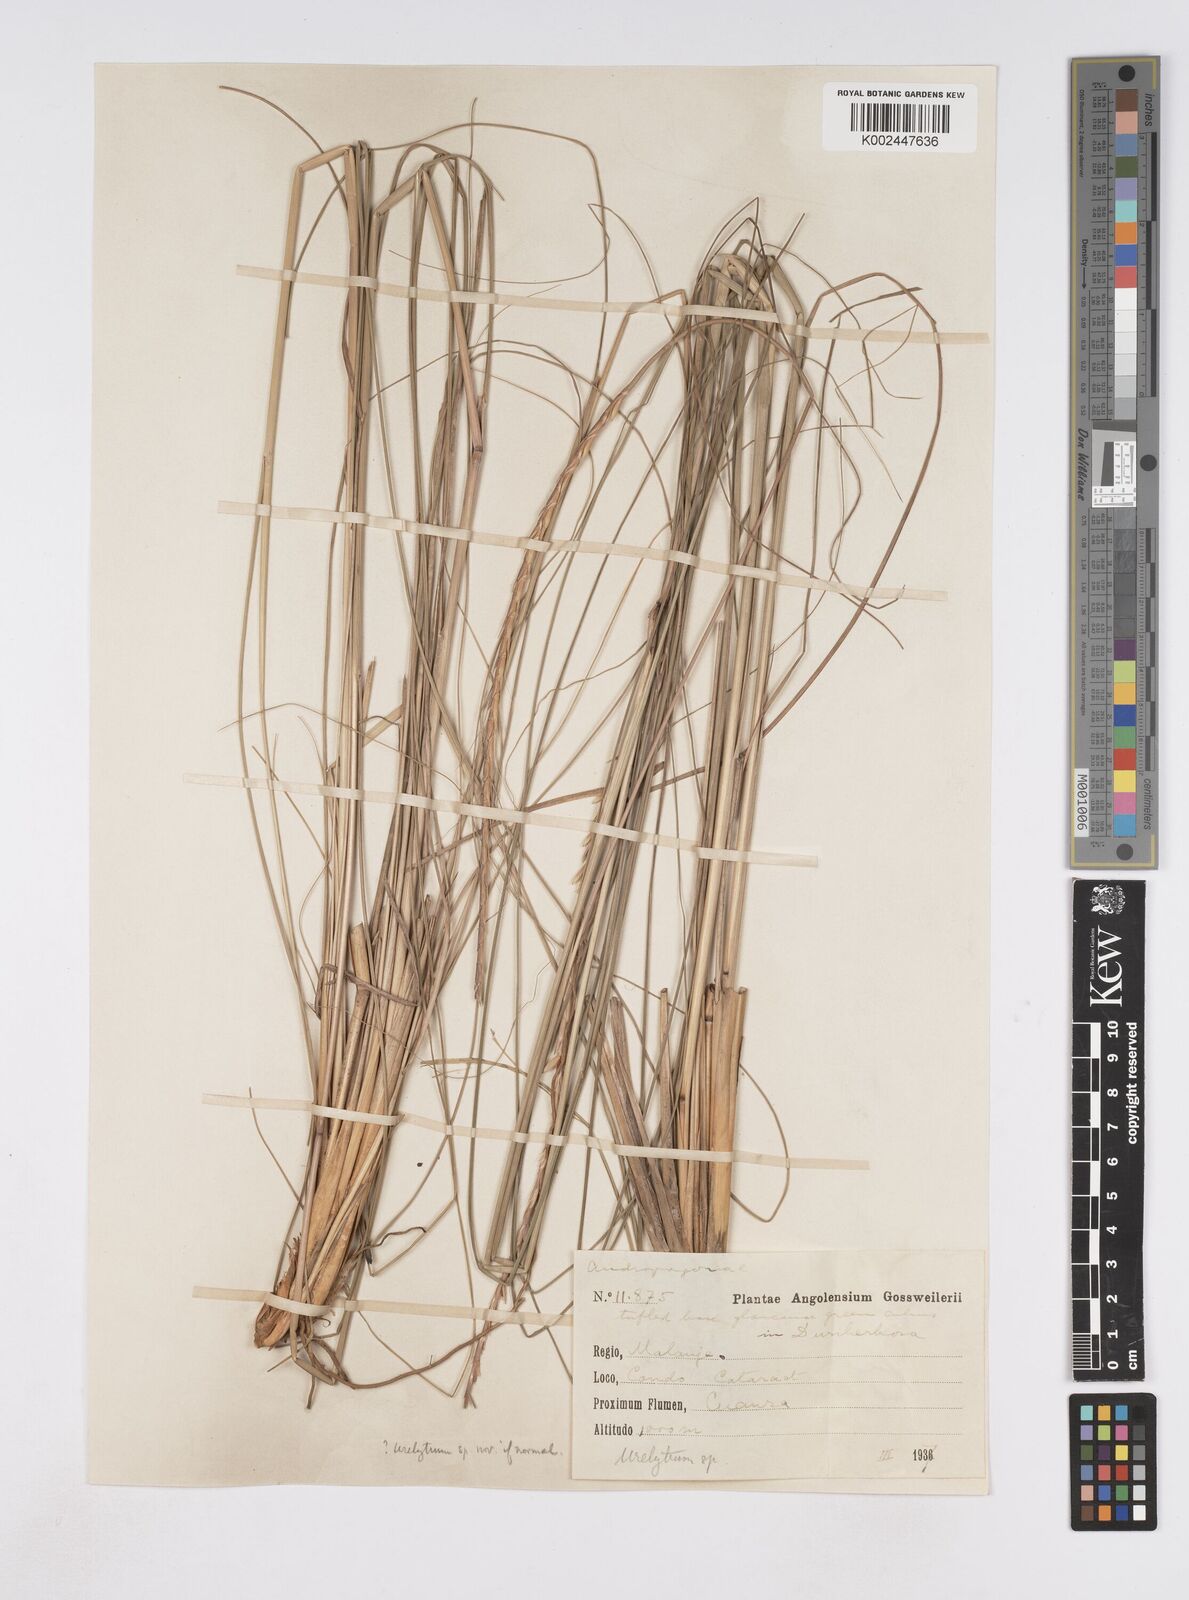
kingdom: Plantae
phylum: Tracheophyta
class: Liliopsida
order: Poales
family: Poaceae
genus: Urelytrum
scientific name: Urelytrum agropyroides
